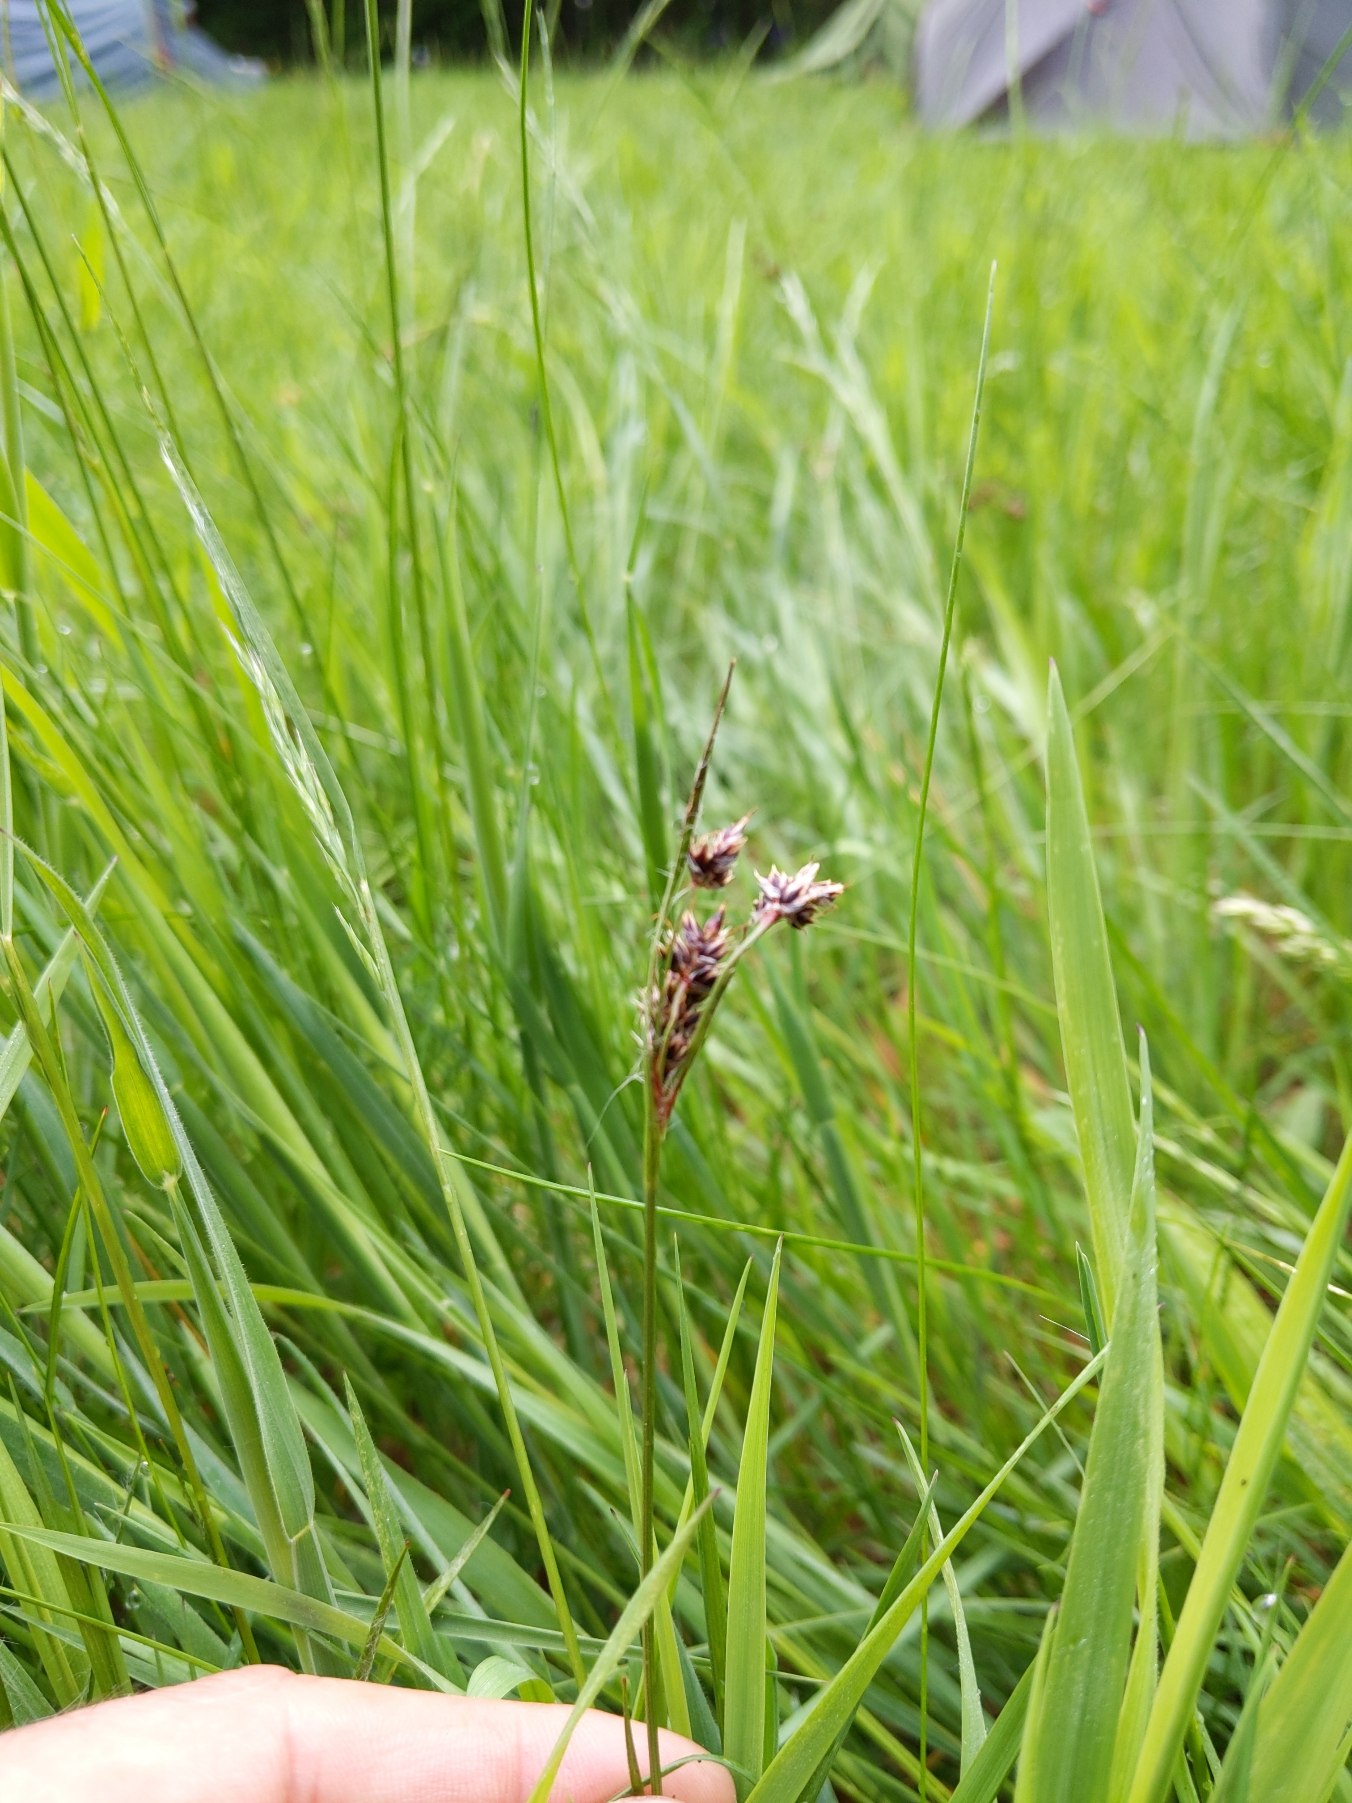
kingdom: Plantae
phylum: Tracheophyta
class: Liliopsida
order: Poales
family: Juncaceae
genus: Luzula
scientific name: Luzula campestris
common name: Mark-frytle
